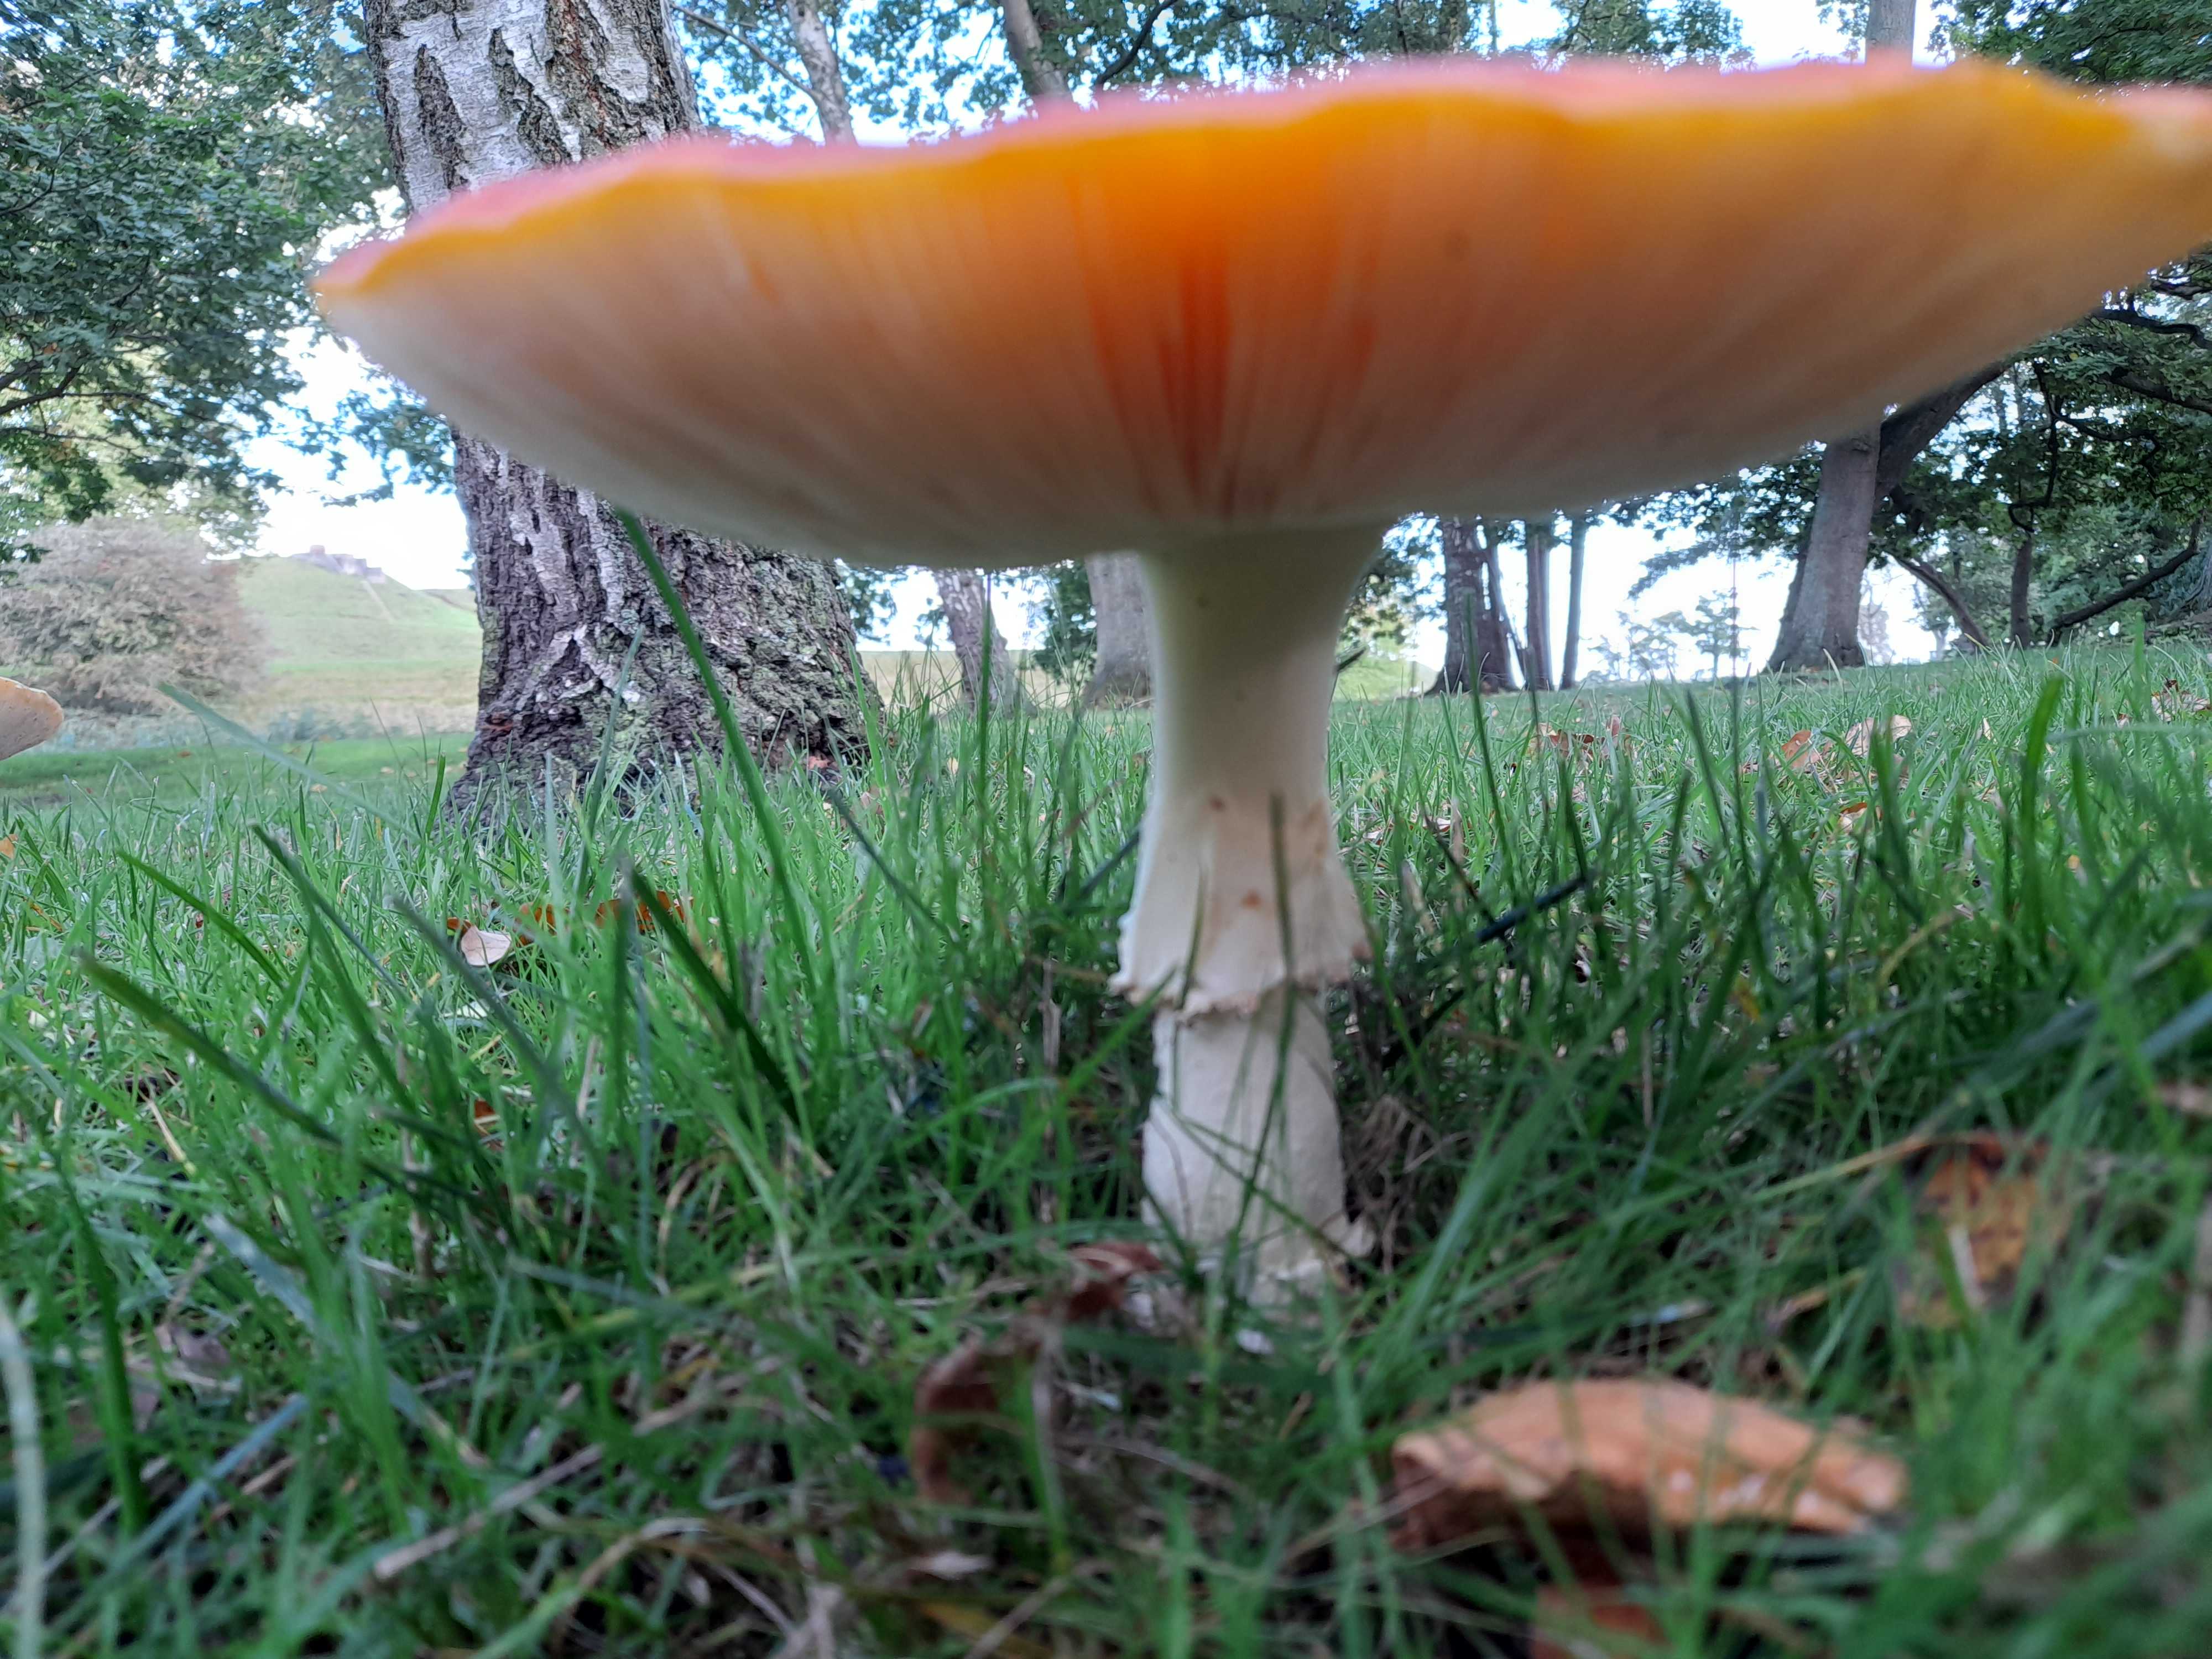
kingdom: Fungi
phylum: Basidiomycota
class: Agaricomycetes
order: Agaricales
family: Amanitaceae
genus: Amanita
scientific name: Amanita muscaria
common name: rød fluesvamp
